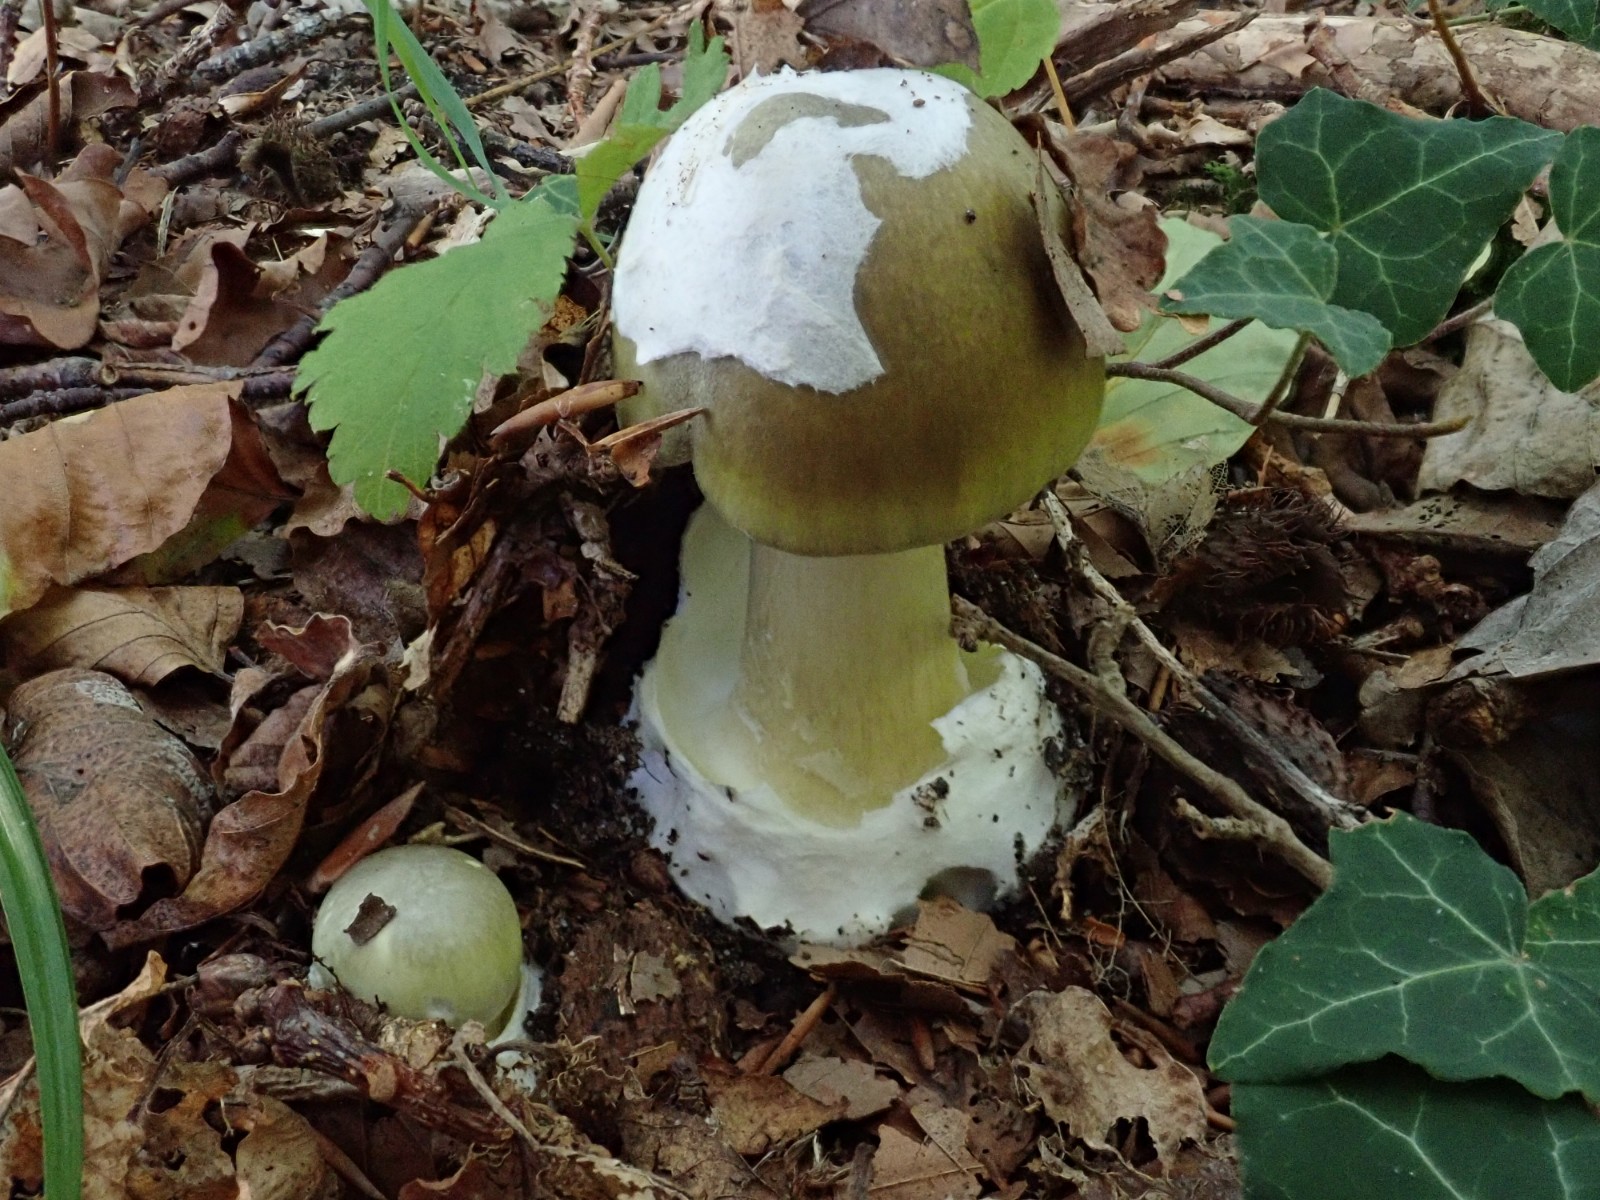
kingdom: Fungi
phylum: Basidiomycota
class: Agaricomycetes
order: Agaricales
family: Amanitaceae
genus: Amanita
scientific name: Amanita phalloides
